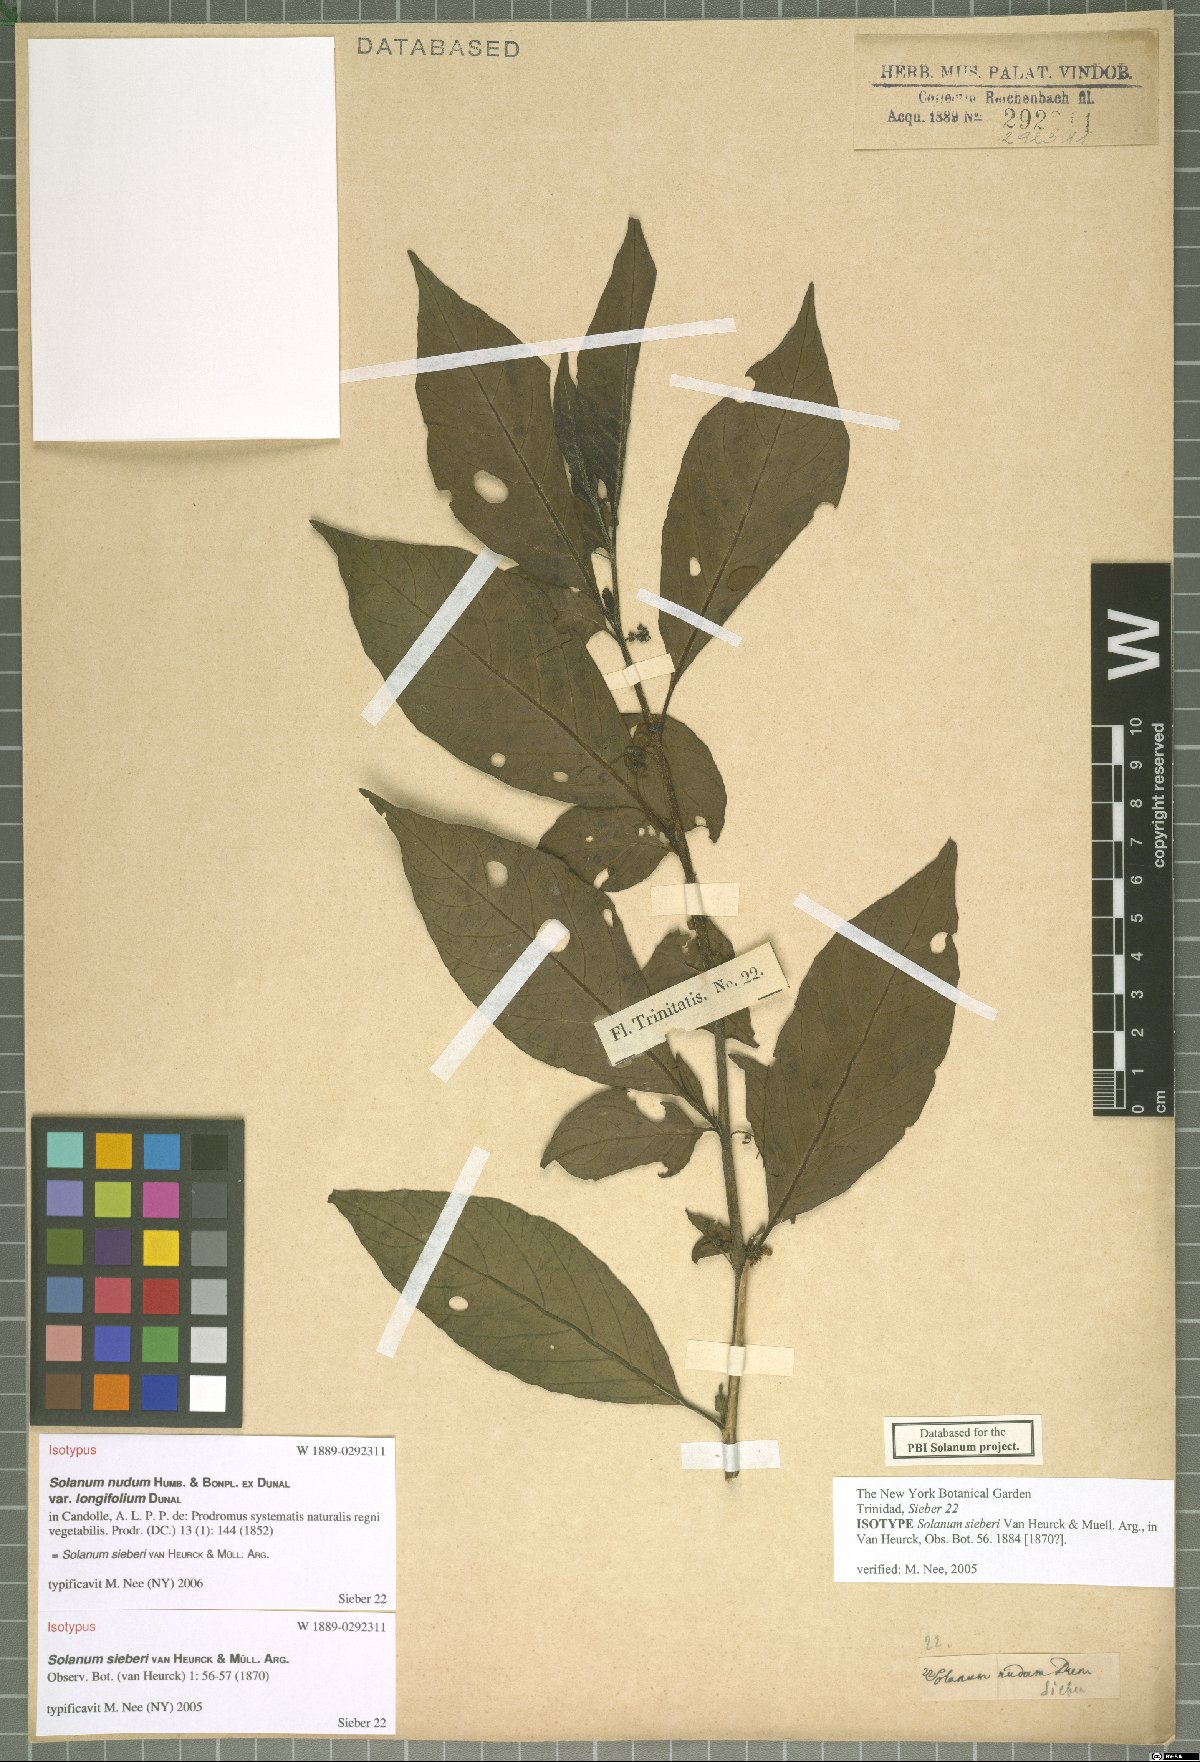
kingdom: Plantae
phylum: Tracheophyta
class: Magnoliopsida
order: Solanales
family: Solanaceae
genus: Solanum
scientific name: Solanum sieberi
